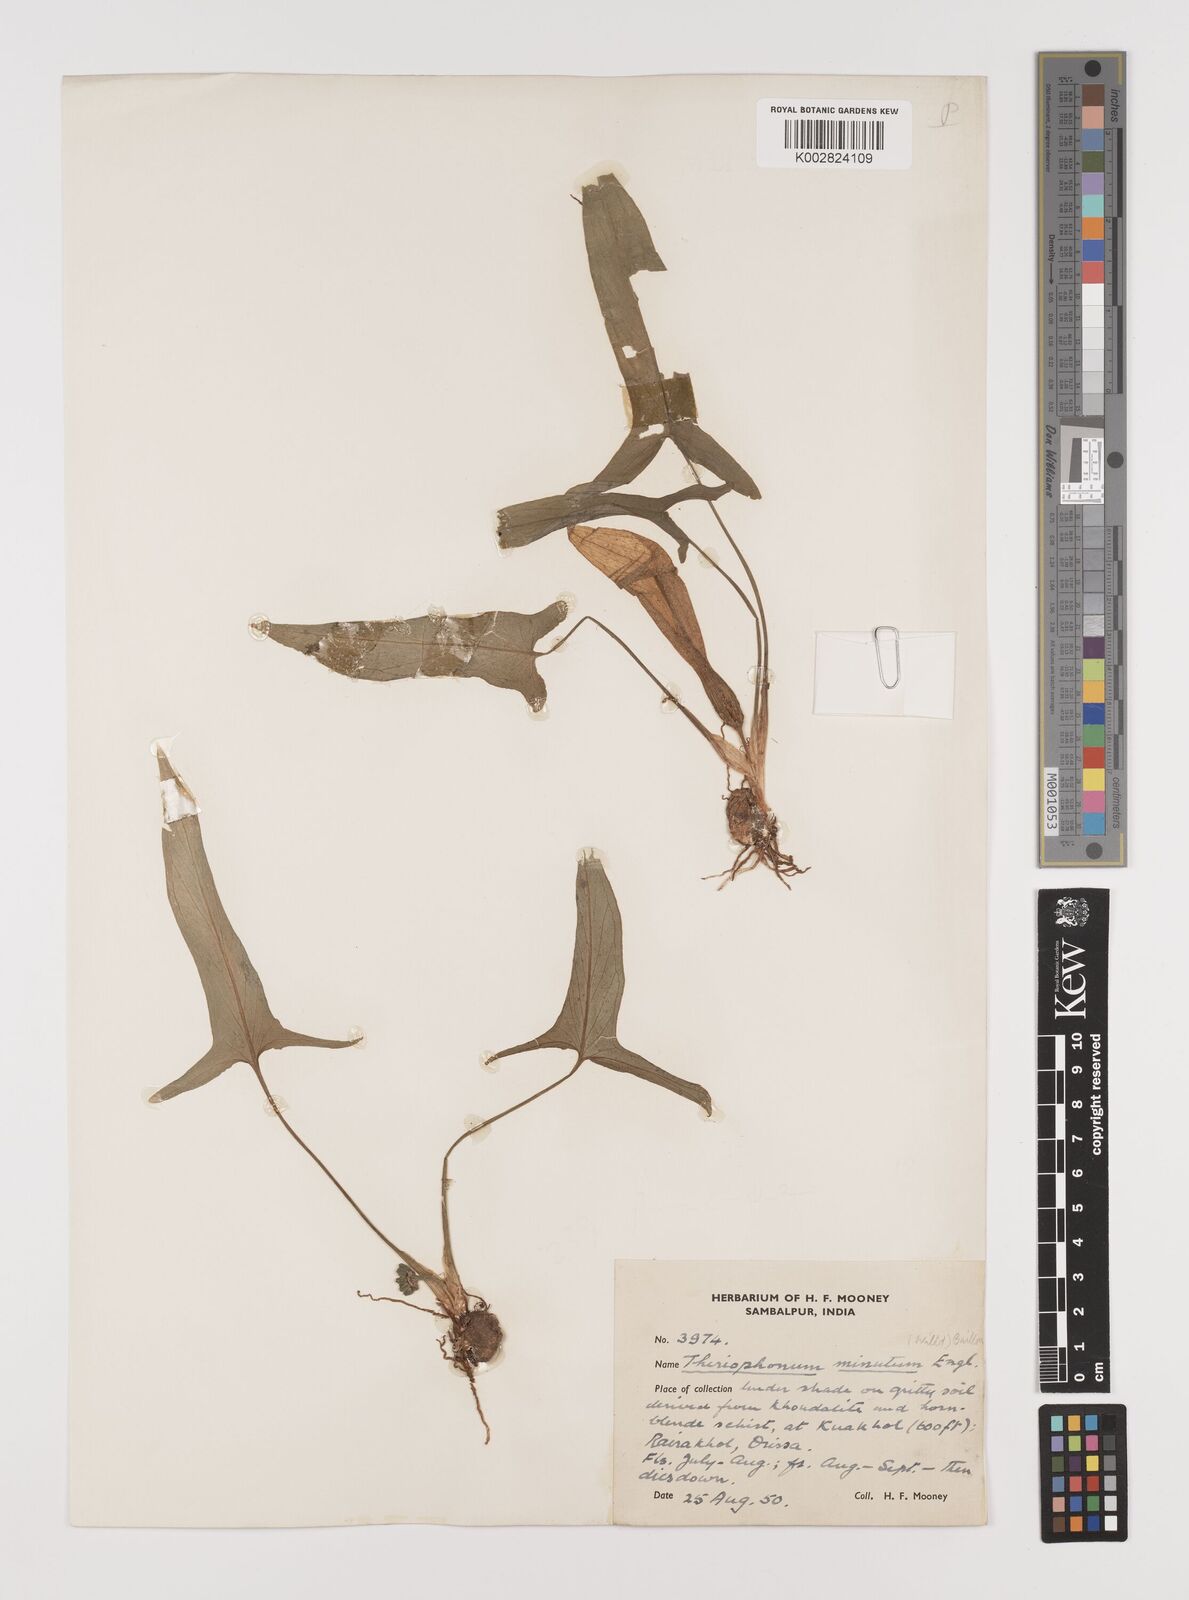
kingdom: Plantae
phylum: Tracheophyta
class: Liliopsida
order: Alismatales
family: Araceae
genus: Theriophonum
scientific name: Theriophonum minutum
